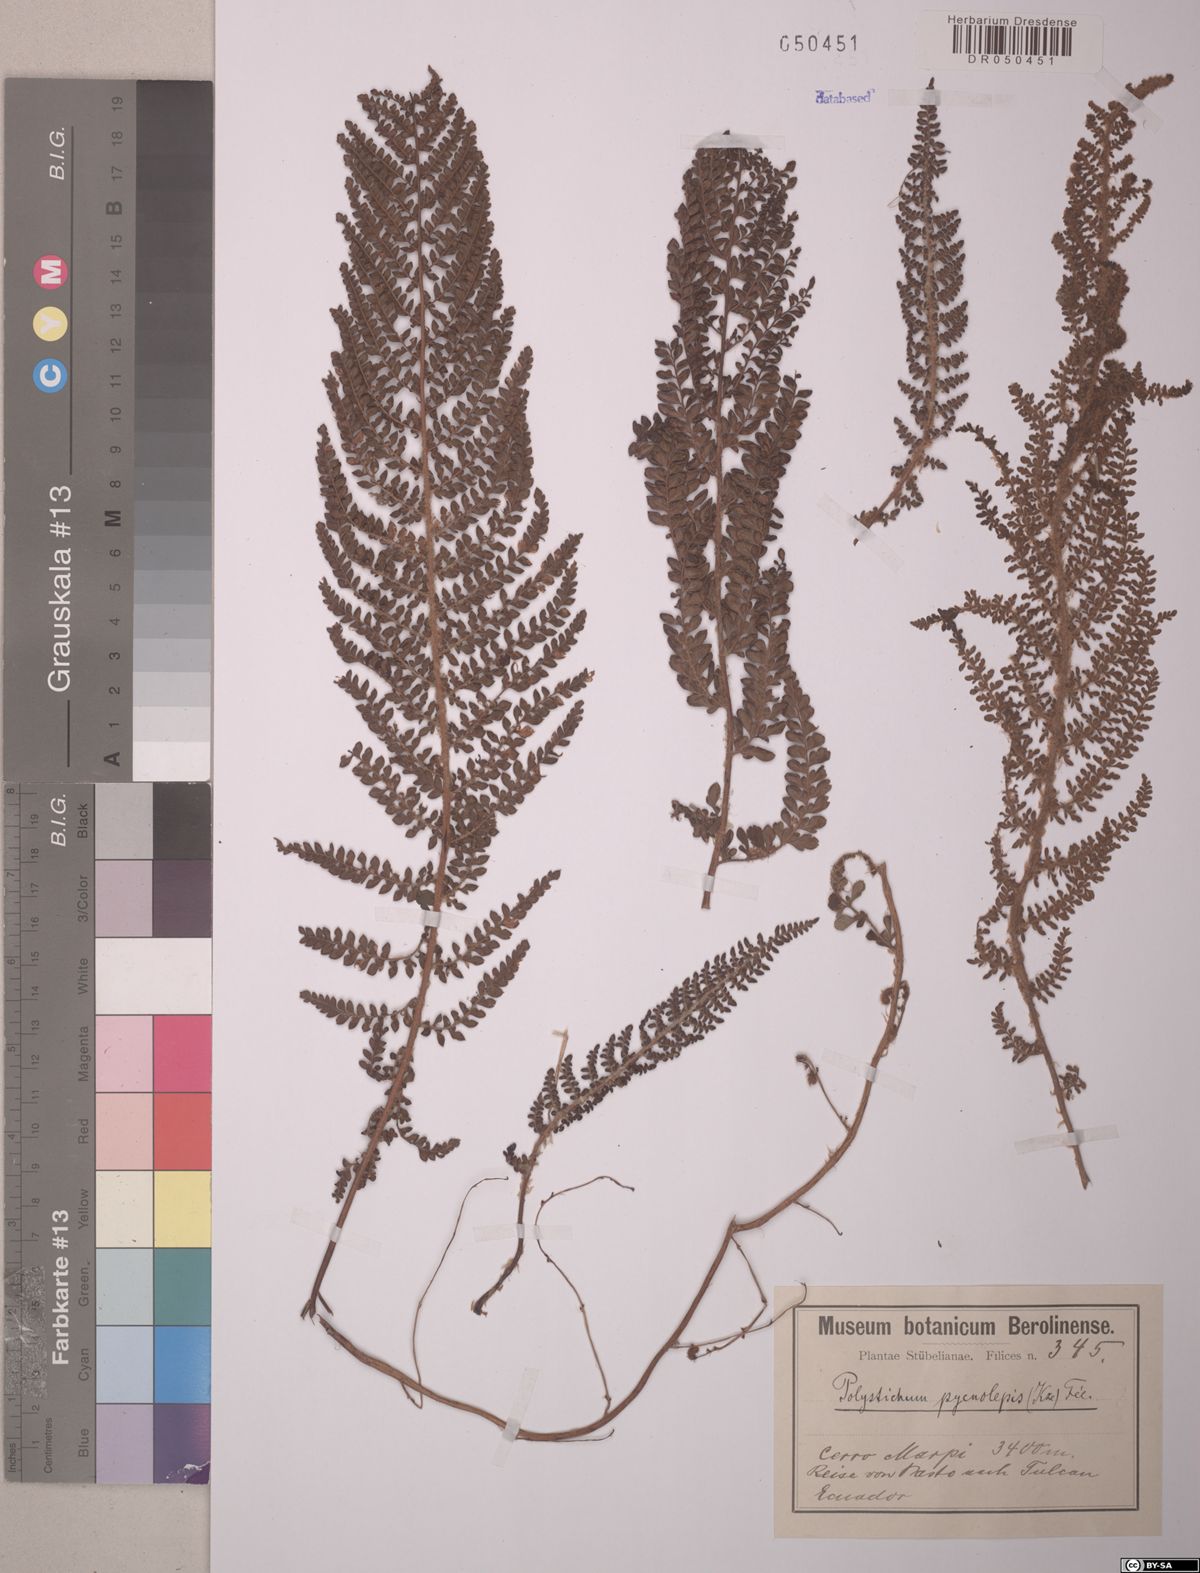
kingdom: Plantae
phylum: Tracheophyta
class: Polypodiopsida
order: Polypodiales
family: Dryopteridaceae
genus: Polystichum
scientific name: Polystichum pycnolepis
